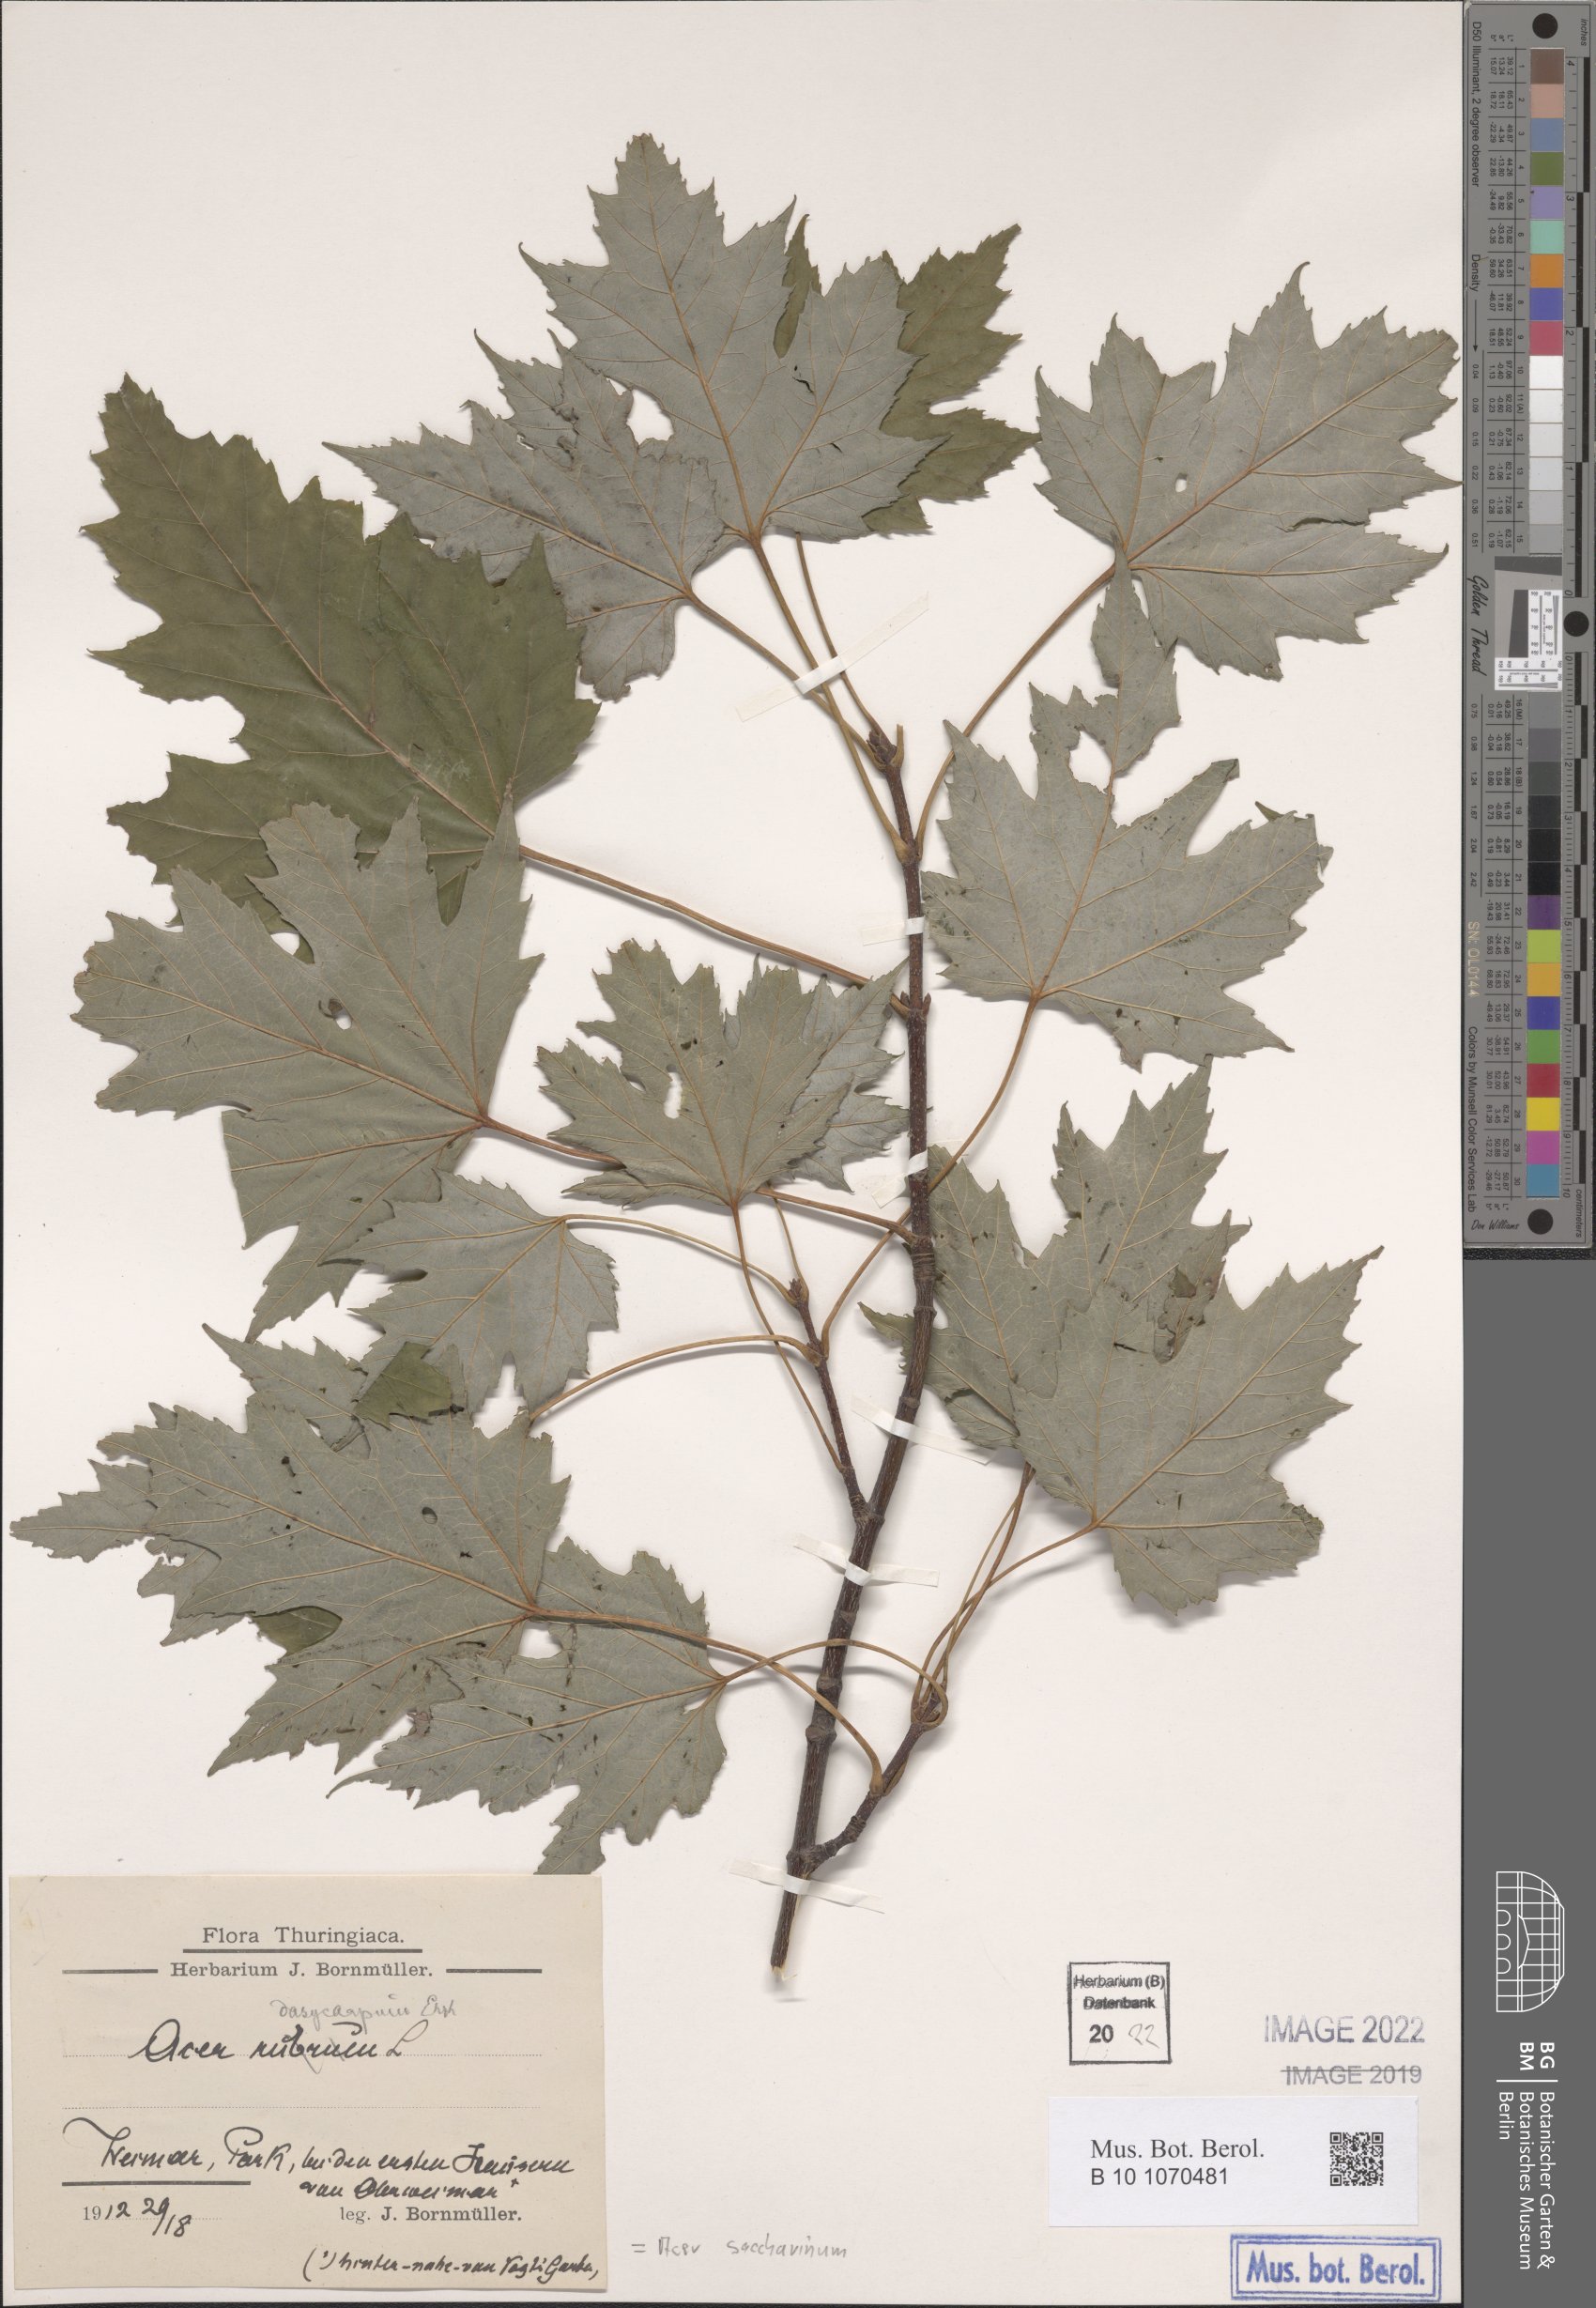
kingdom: Plantae
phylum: Tracheophyta
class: Magnoliopsida
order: Sapindales
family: Sapindaceae
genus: Acer
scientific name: Acer saccharinum
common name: Silver maple
